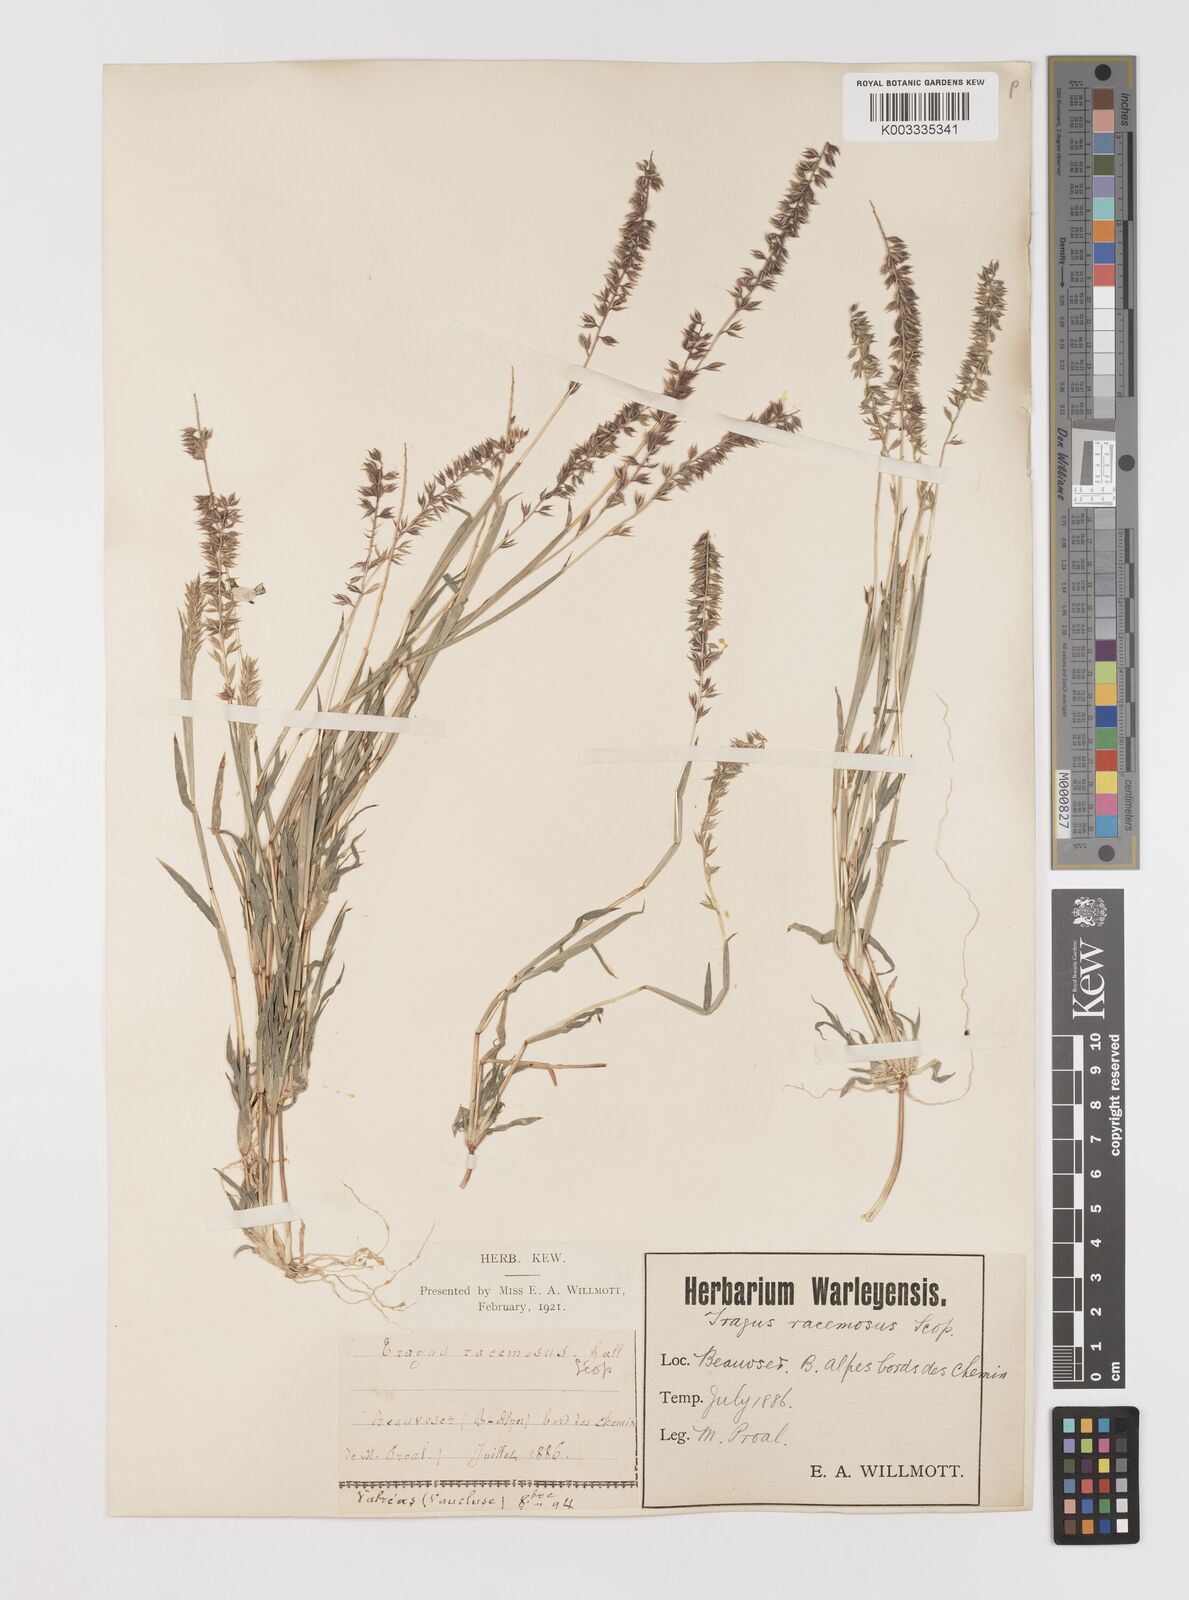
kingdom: Plantae
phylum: Tracheophyta
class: Liliopsida
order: Poales
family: Poaceae
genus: Tragus
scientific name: Tragus racemosus
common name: European bur-grass
